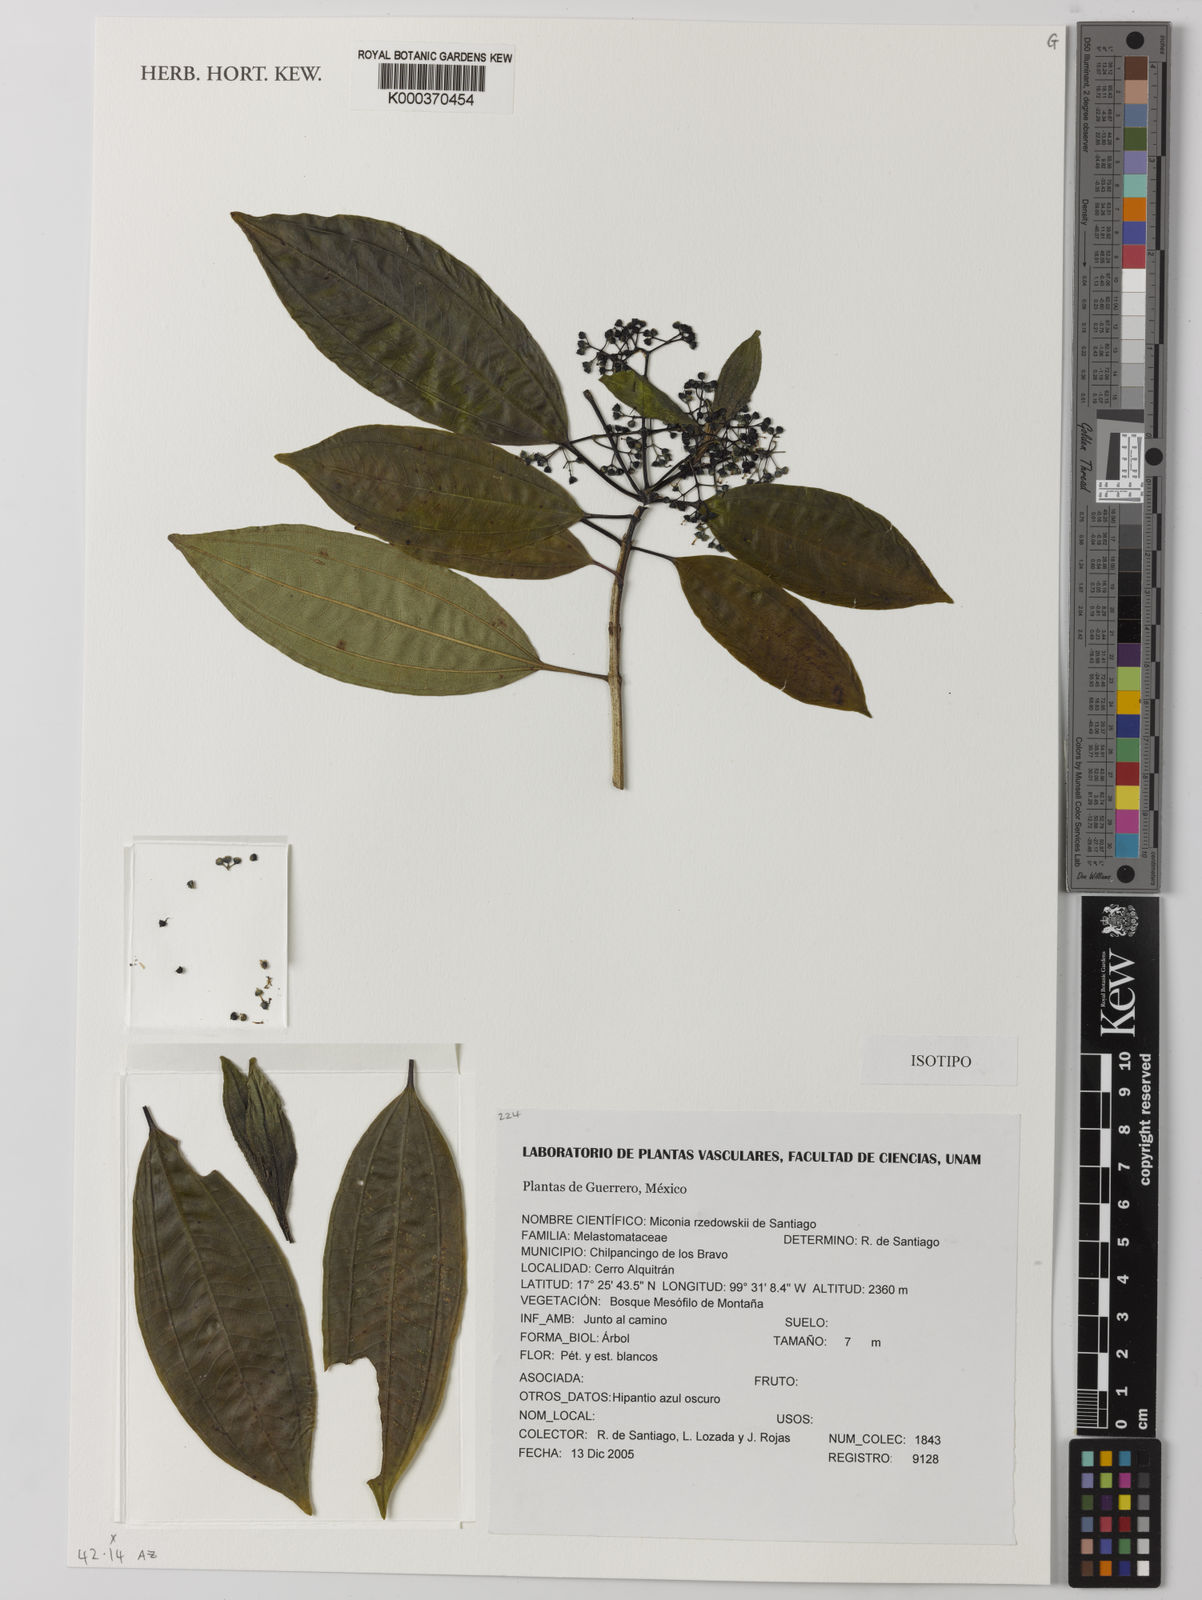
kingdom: Plantae
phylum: Tracheophyta
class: Magnoliopsida
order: Myrtales
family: Melastomataceae
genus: Miconia
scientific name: Miconia rzedowskii
